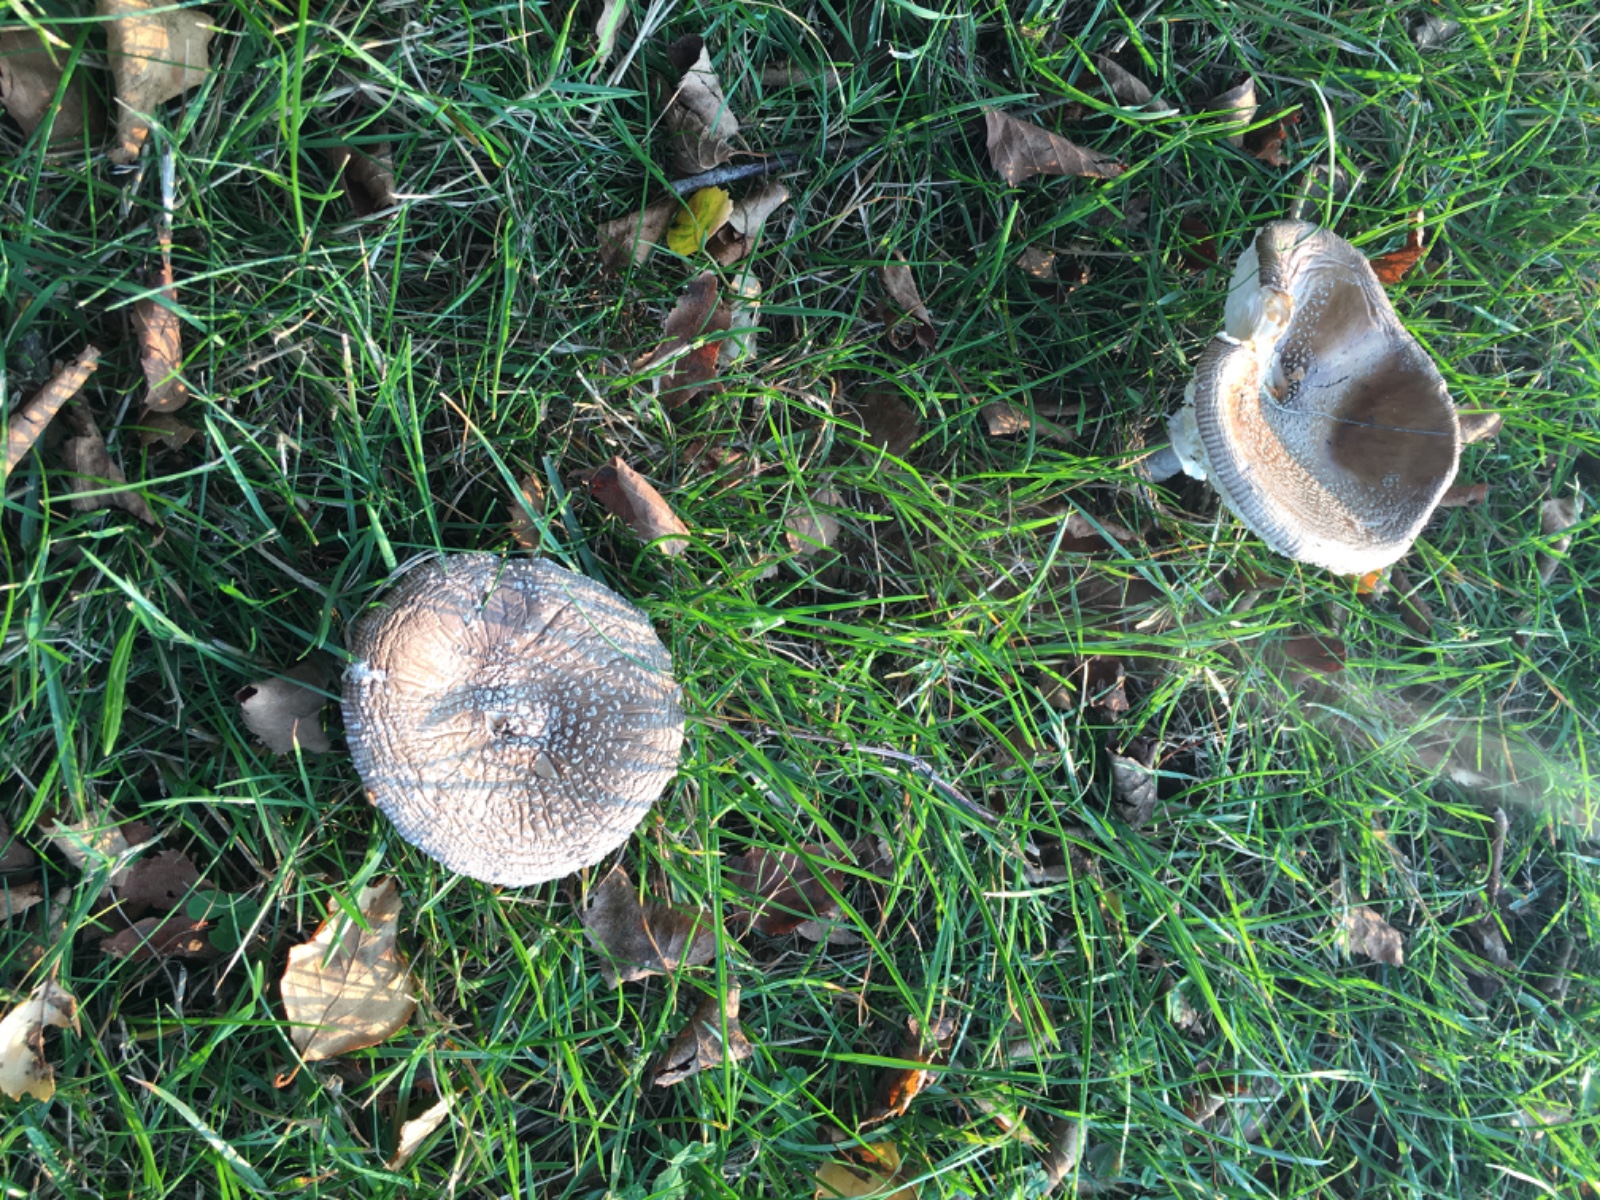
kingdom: Fungi
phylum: Basidiomycota
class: Agaricomycetes
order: Agaricales
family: Amanitaceae
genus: Amanita
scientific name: Amanita pantherina
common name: panter-fluesvamp
